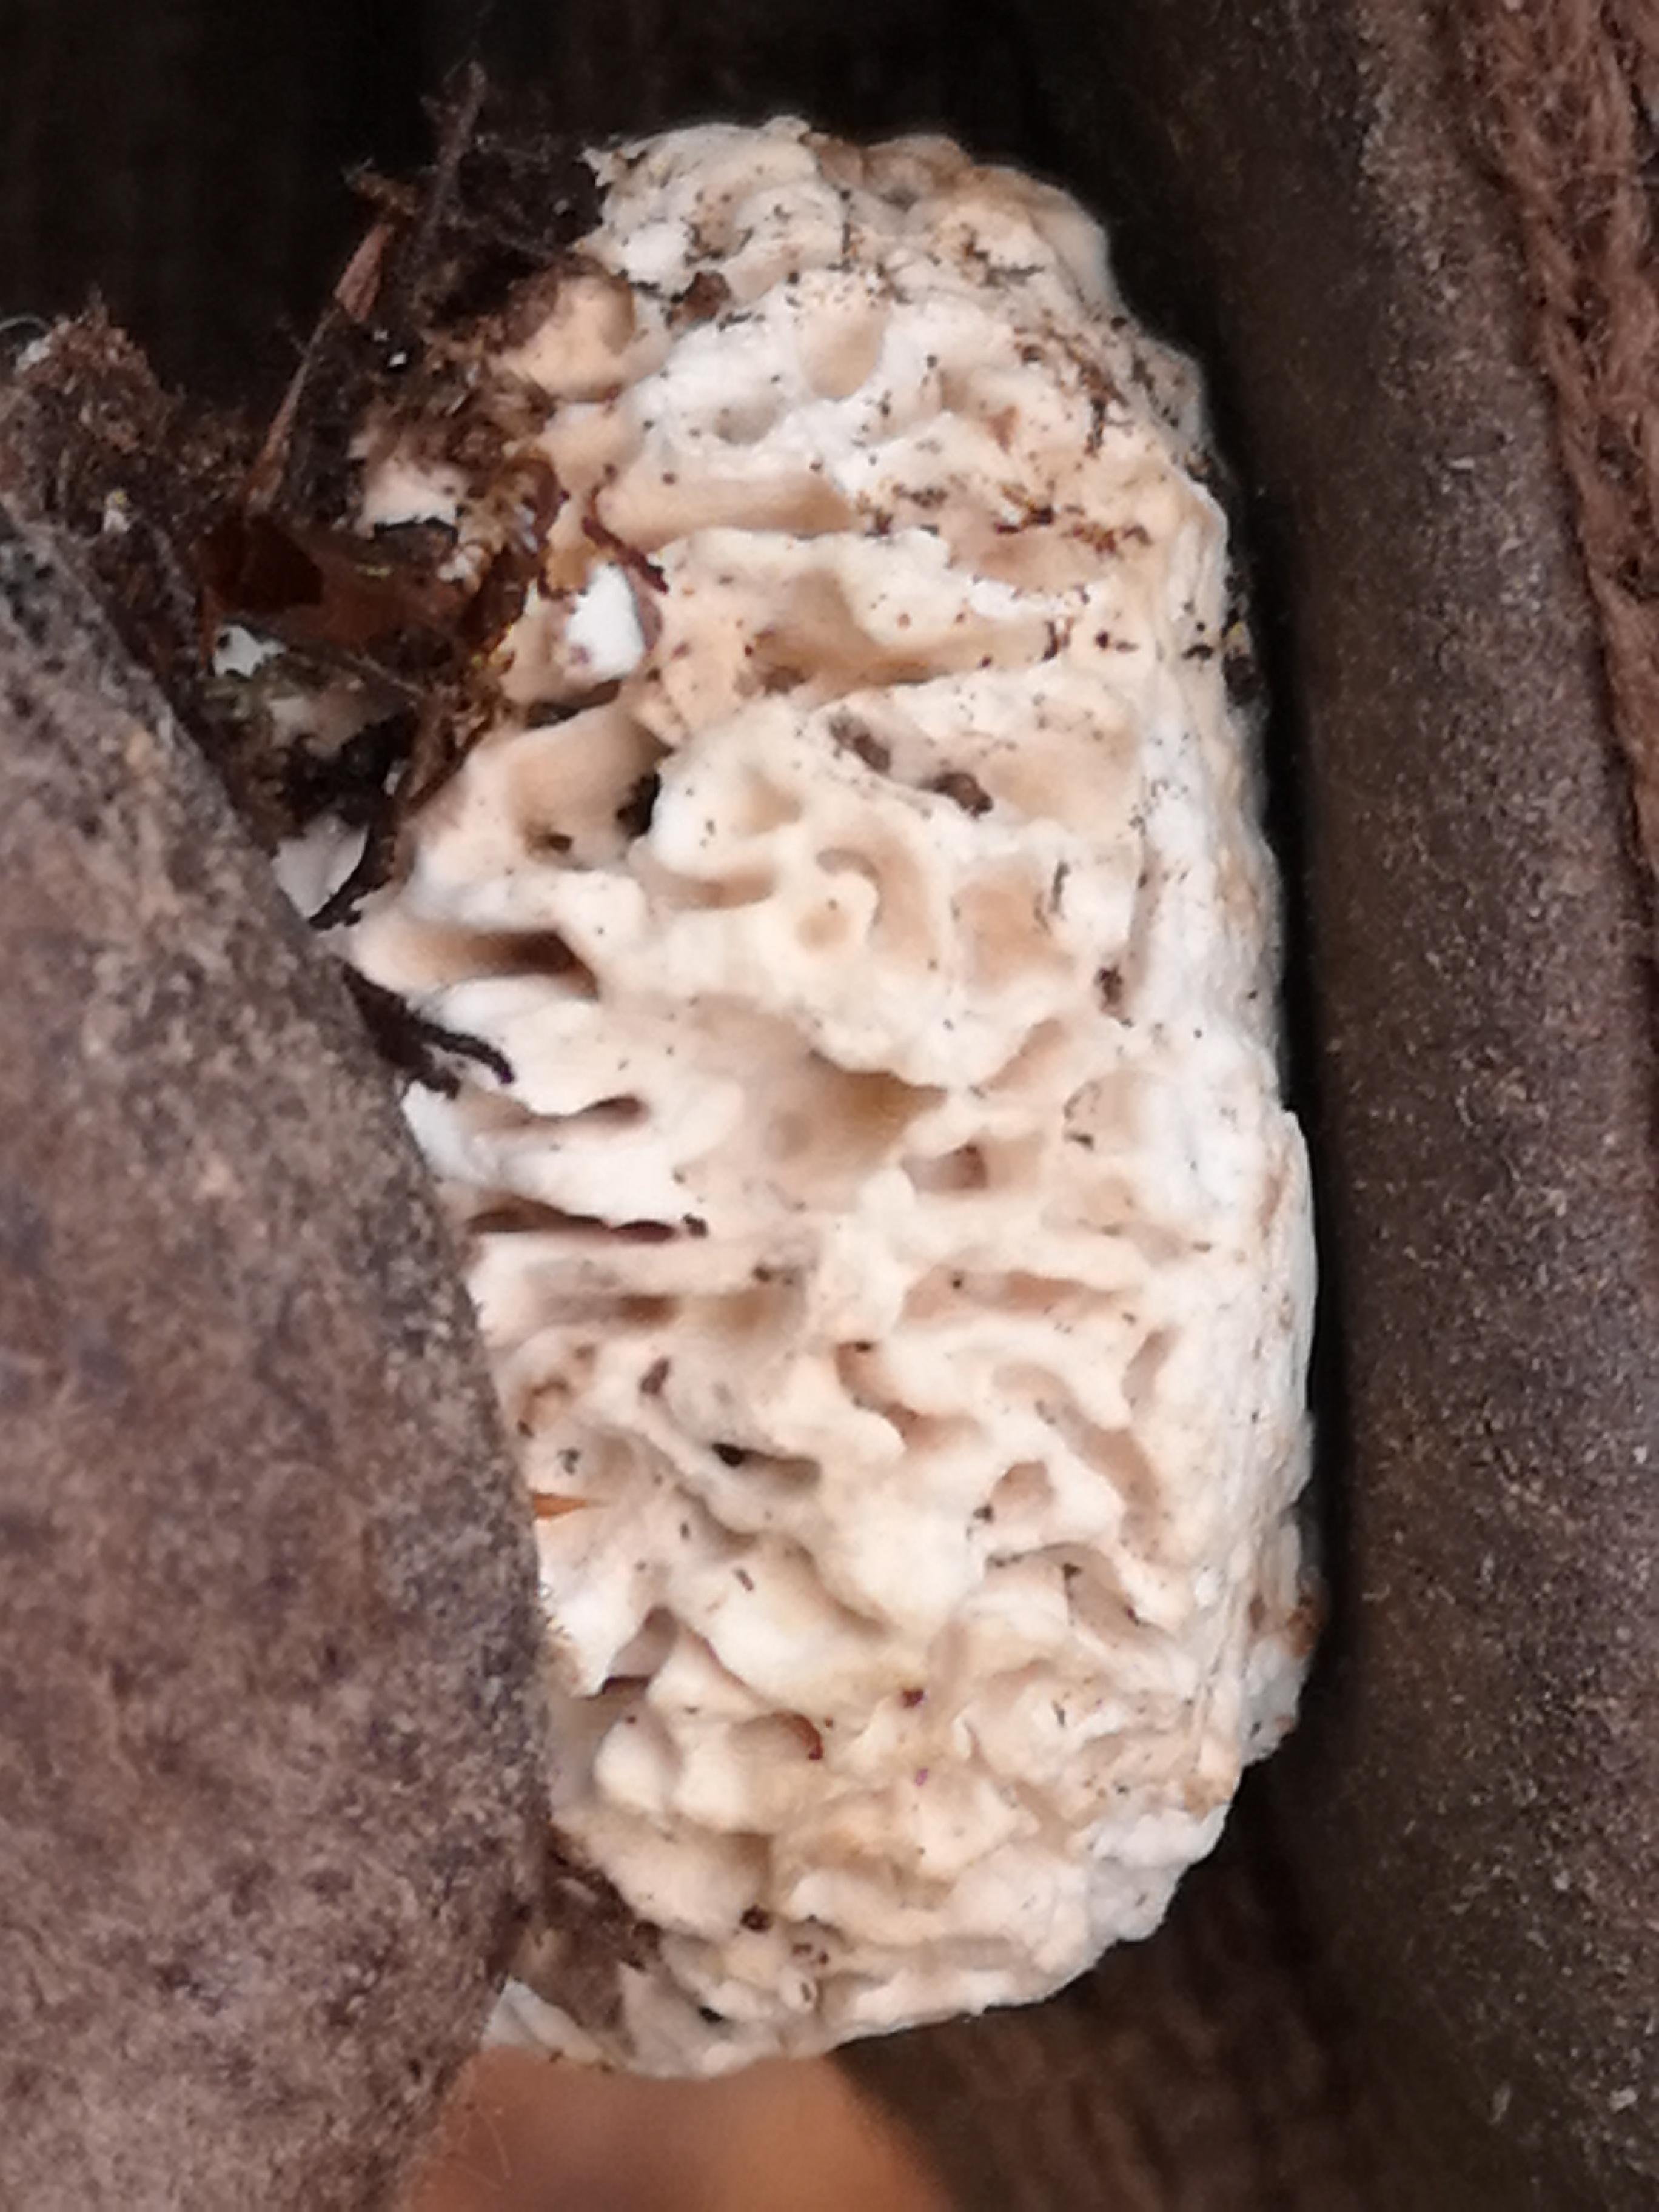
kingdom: Fungi
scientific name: Fungi
